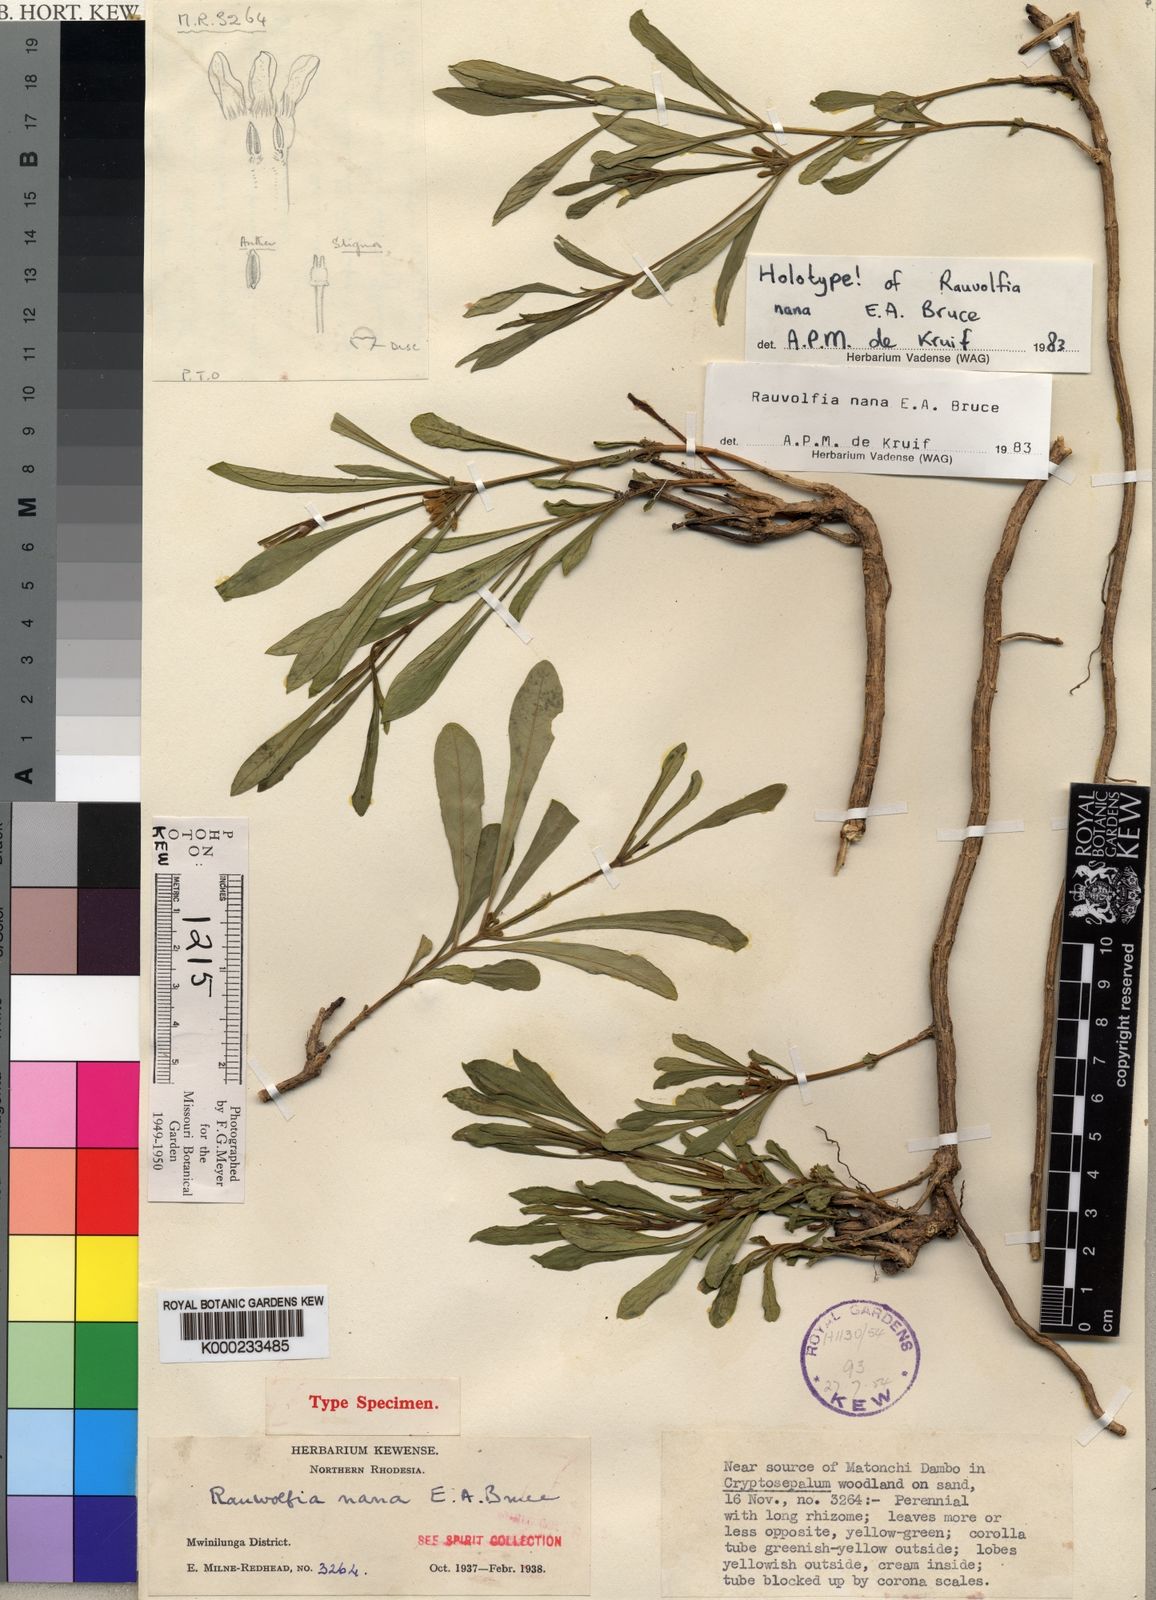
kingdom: Plantae
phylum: Tracheophyta
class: Magnoliopsida
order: Gentianales
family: Apocynaceae
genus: Rauvolfia
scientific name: Rauvolfia nana
